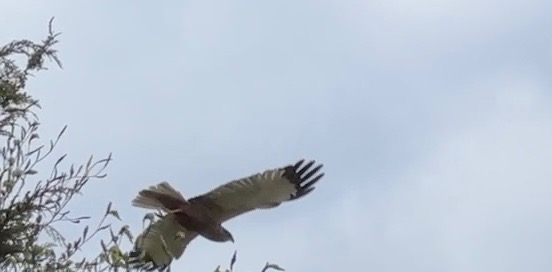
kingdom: Animalia
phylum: Chordata
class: Aves
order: Accipitriformes
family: Accipitridae
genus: Circus
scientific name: Circus aeruginosus
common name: Rørhøg
